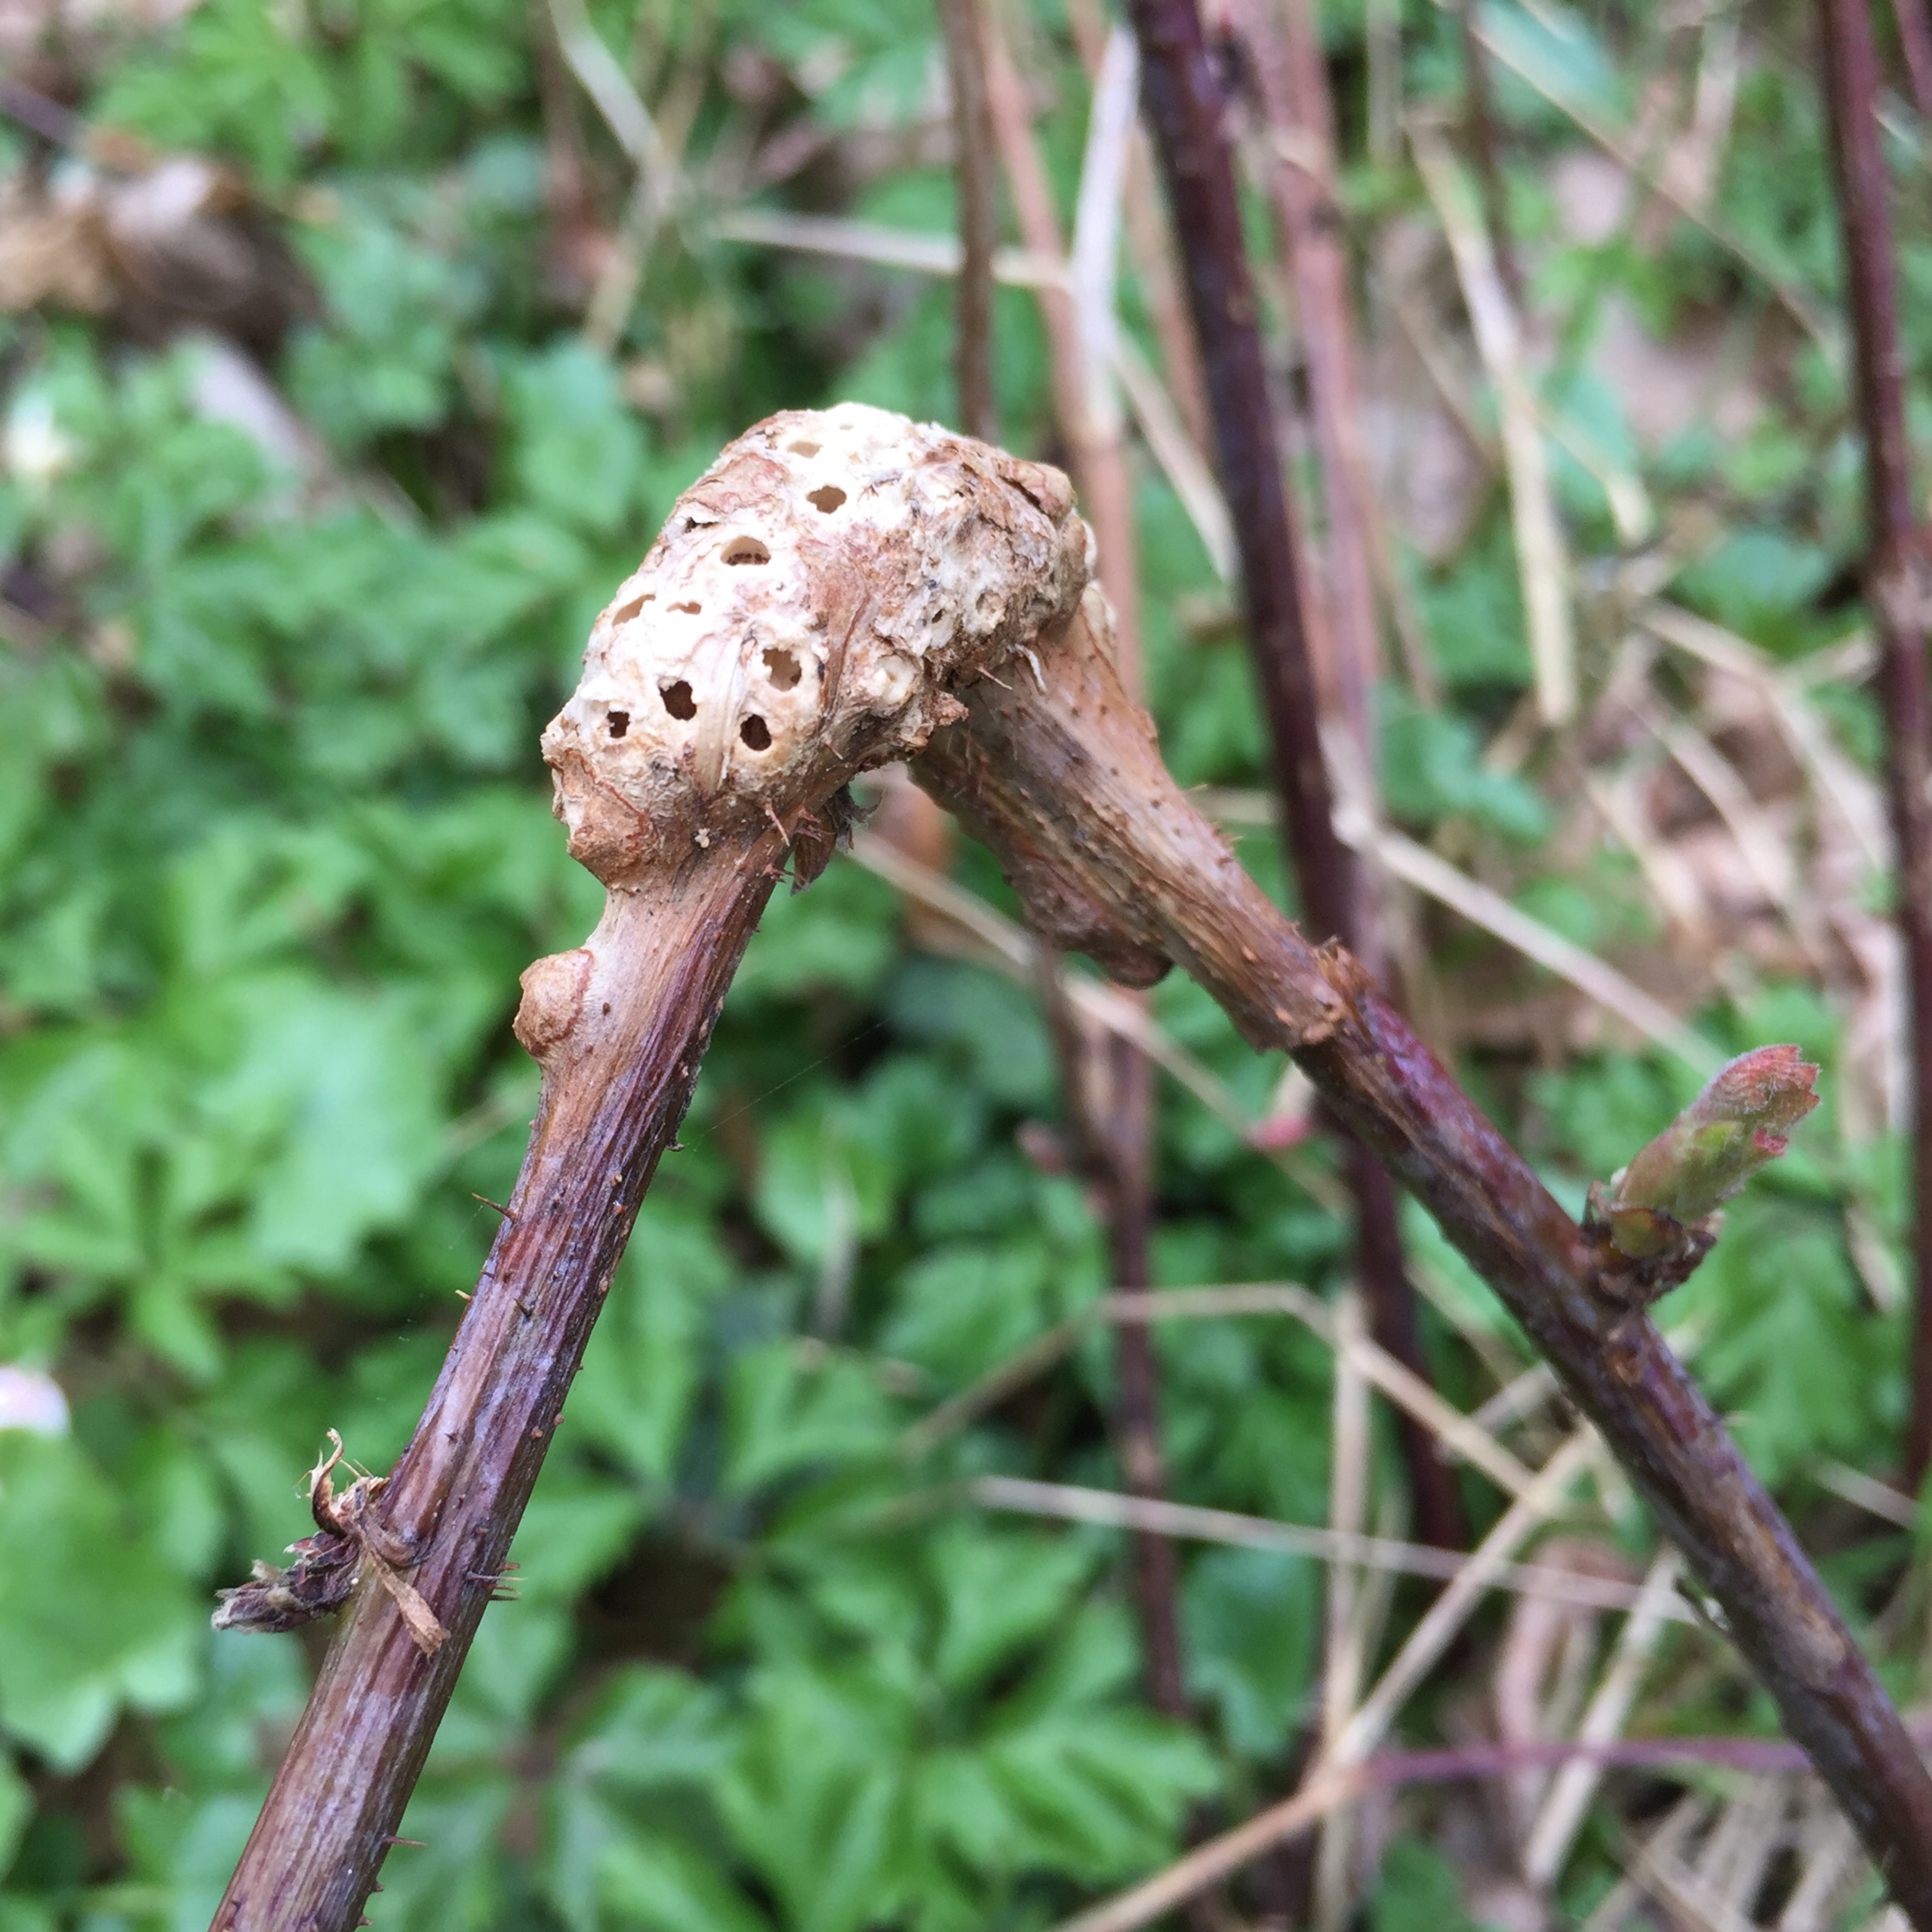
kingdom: Animalia
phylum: Arthropoda
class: Insecta
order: Hymenoptera
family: Cynipidae
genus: Diastrophus
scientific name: Diastrophus rubi
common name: Brombærgalhveps
